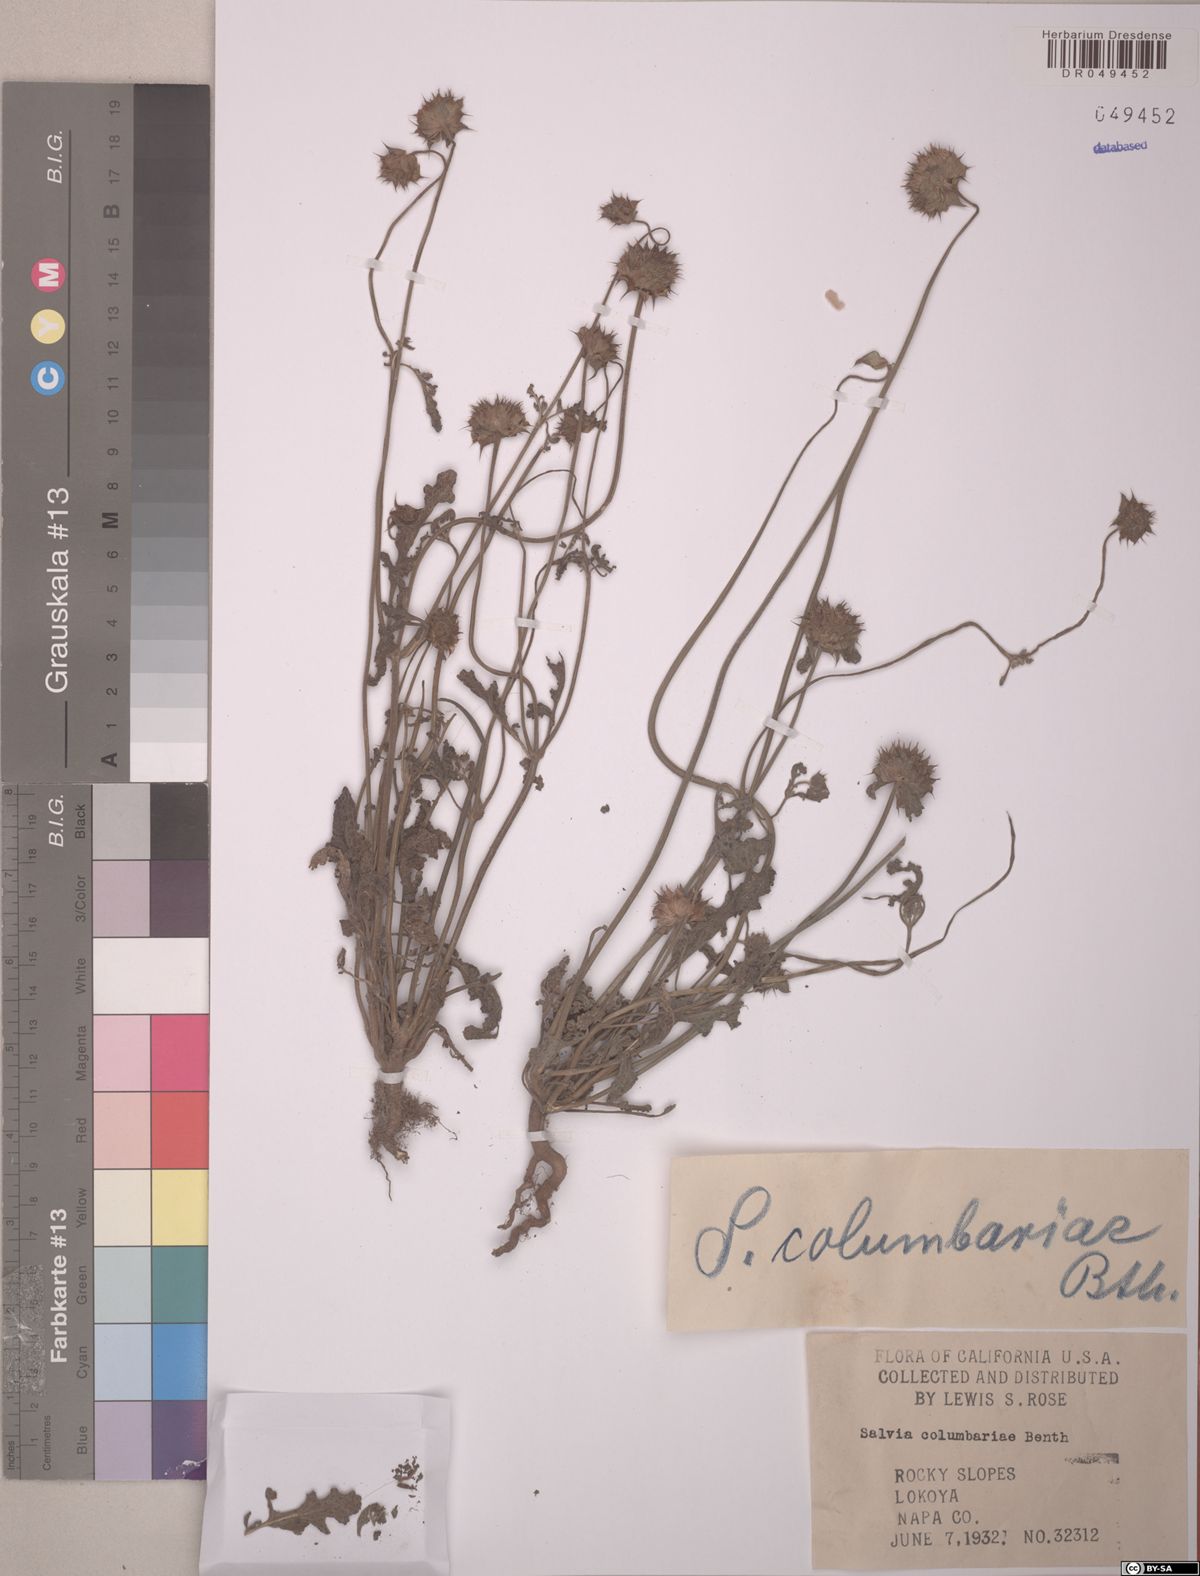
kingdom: Plantae
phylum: Tracheophyta
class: Magnoliopsida
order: Lamiales
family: Lamiaceae
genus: Salvia
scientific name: Salvia columbariae
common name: Chia
